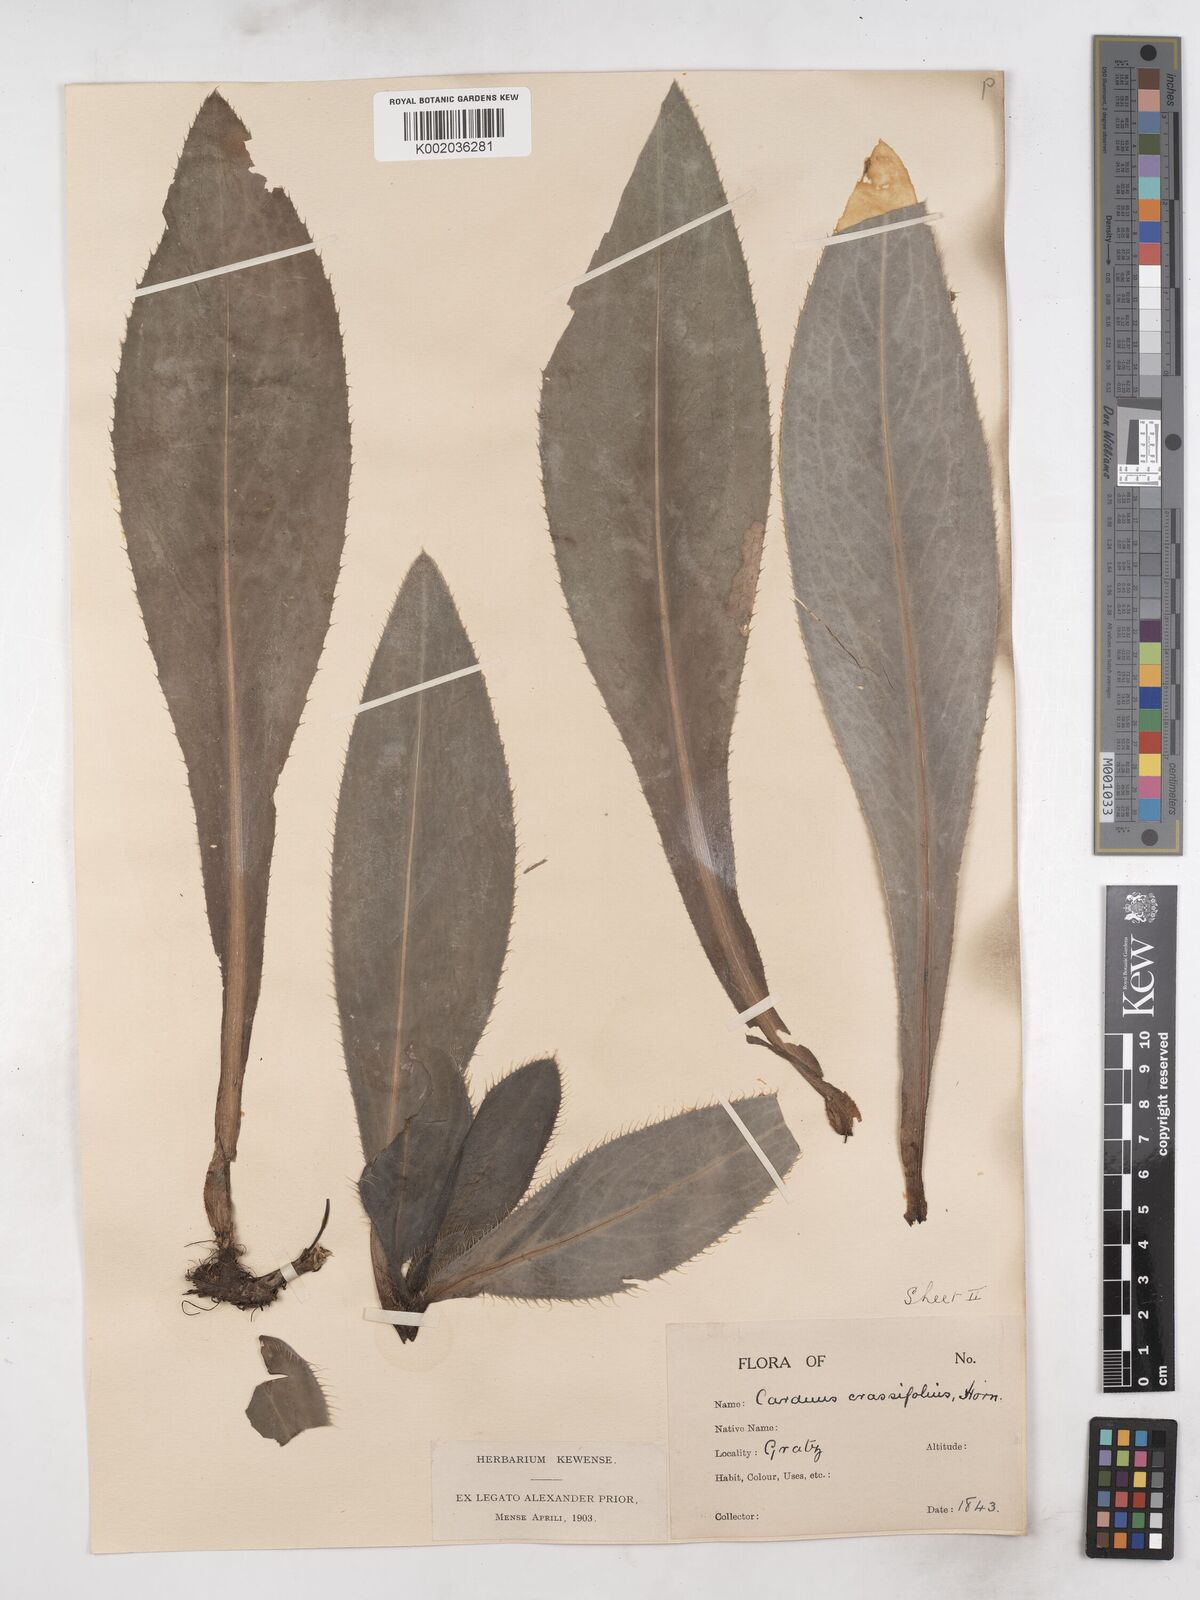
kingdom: Plantae
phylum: Tracheophyta
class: Magnoliopsida
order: Asterales
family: Asteraceae
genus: Carduus
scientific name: Carduus defloratus
